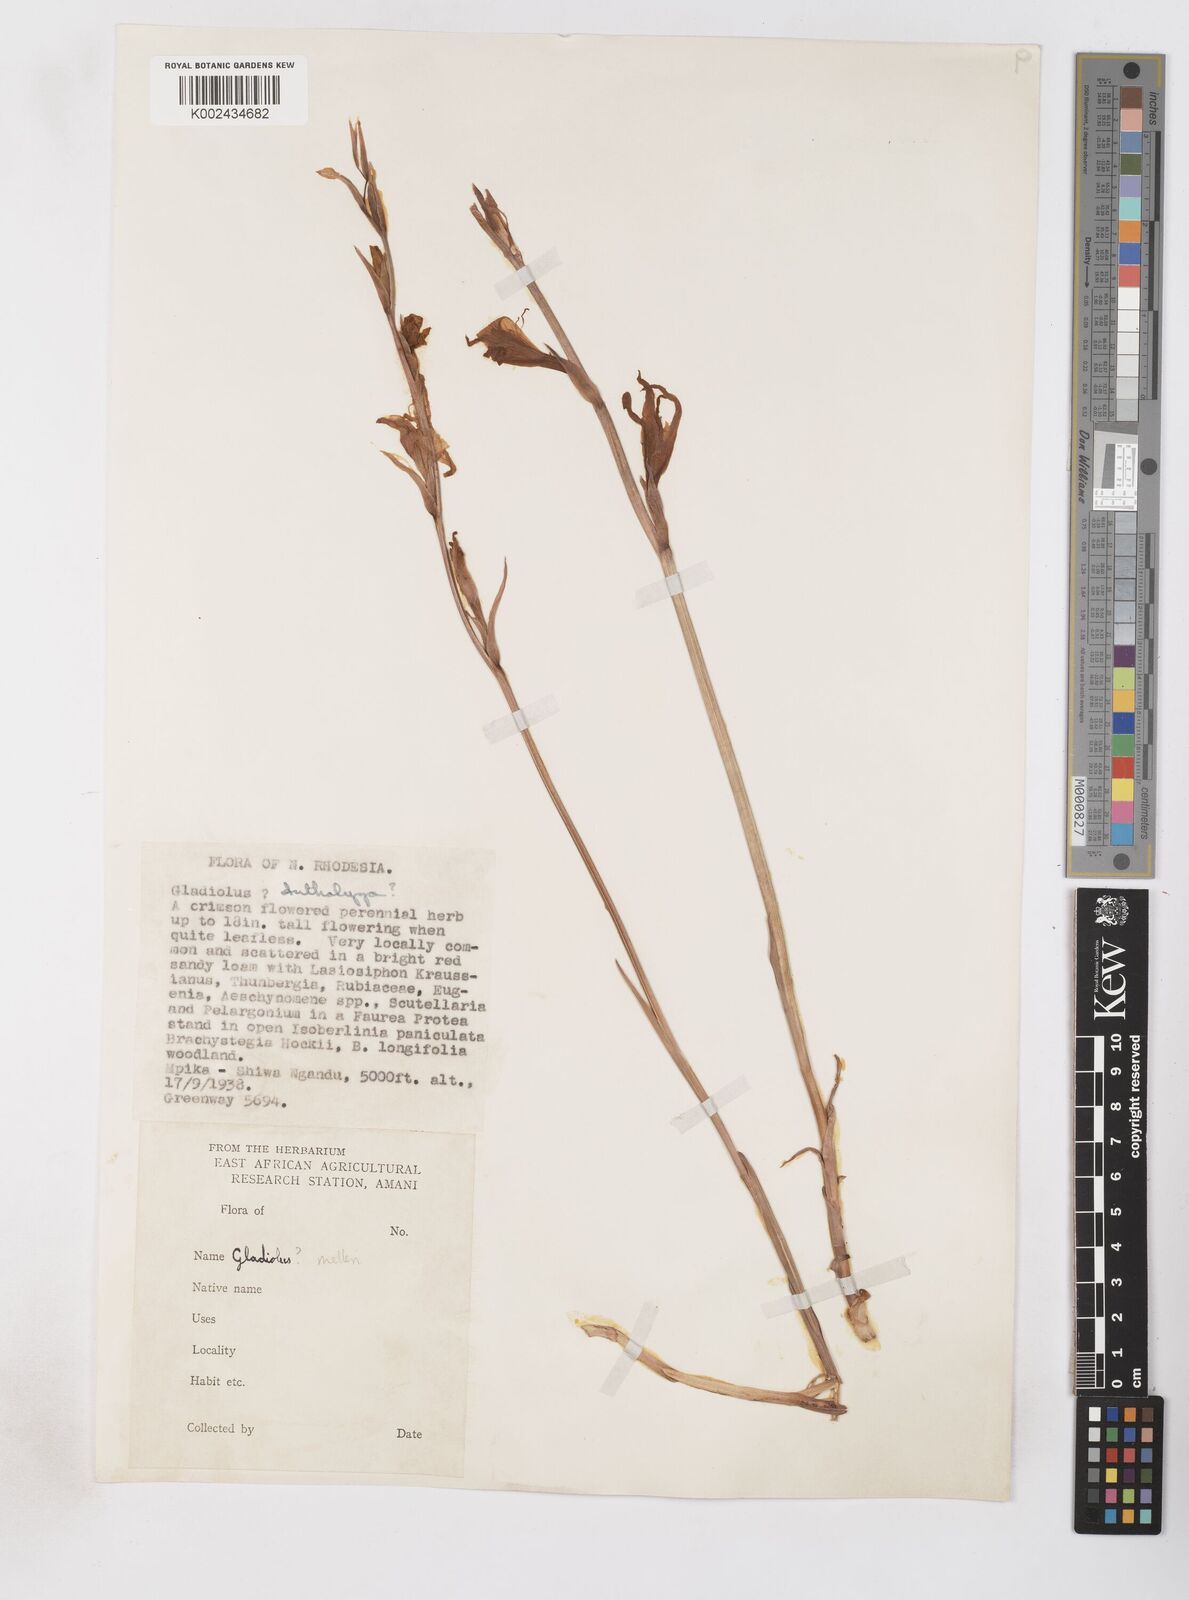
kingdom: Plantae
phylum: Tracheophyta
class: Liliopsida
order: Asparagales
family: Iridaceae
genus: Gladiolus
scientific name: Gladiolus melleri
